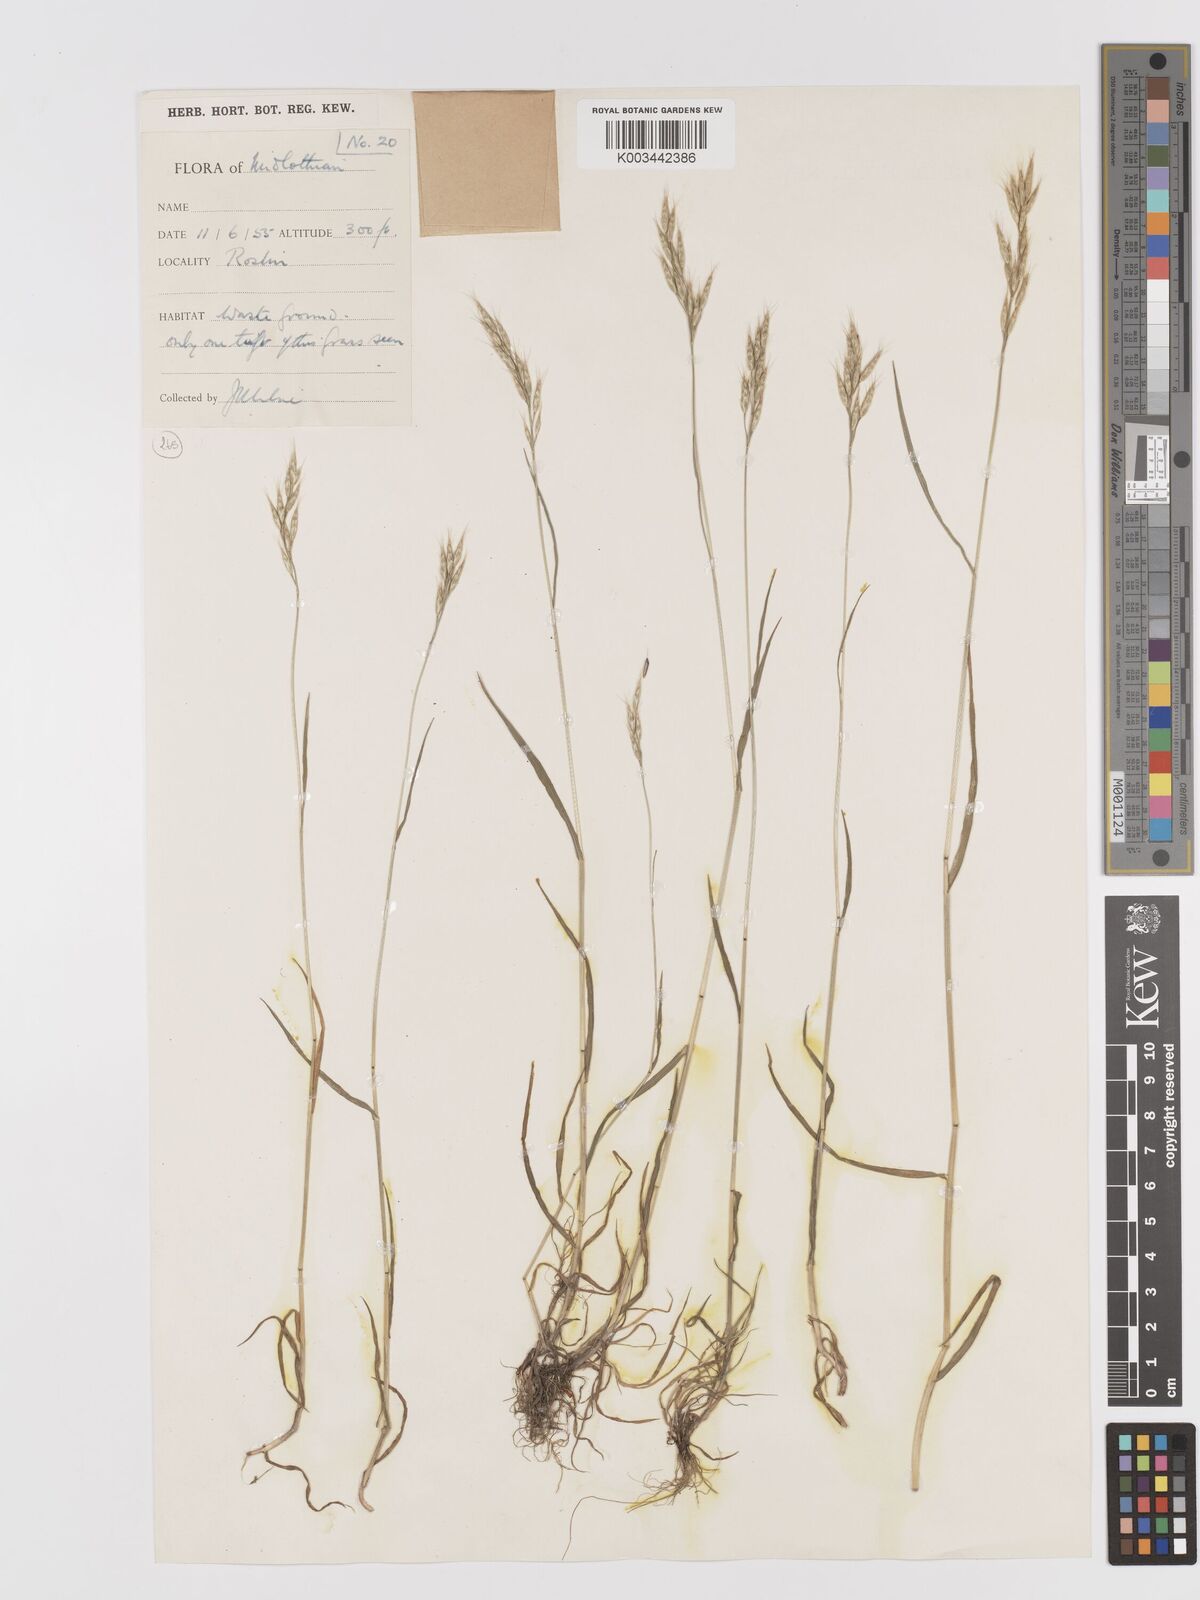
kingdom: Plantae
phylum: Tracheophyta
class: Liliopsida
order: Poales
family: Poaceae
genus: Bromus
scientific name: Bromus lepidus
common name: Slender soft-brome
